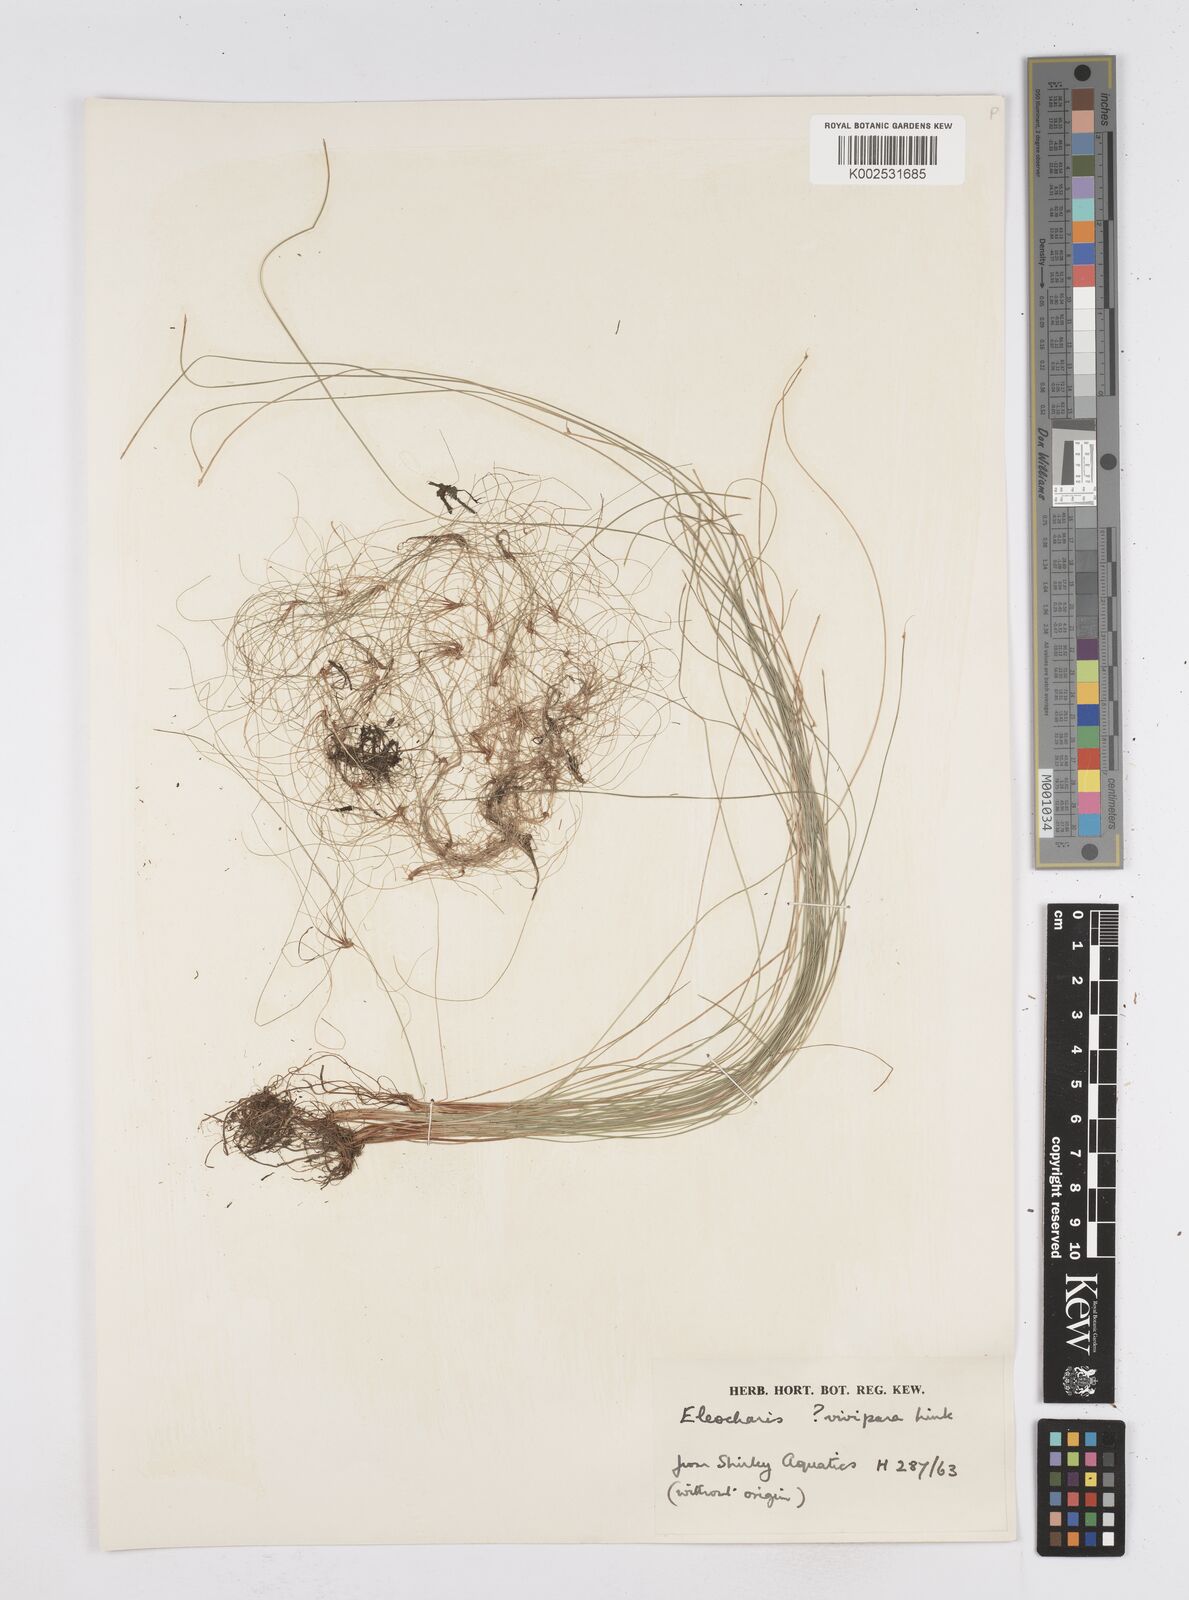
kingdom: Plantae
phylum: Tracheophyta
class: Liliopsida
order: Poales
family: Cyperaceae
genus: Eleocharis
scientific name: Eleocharis
